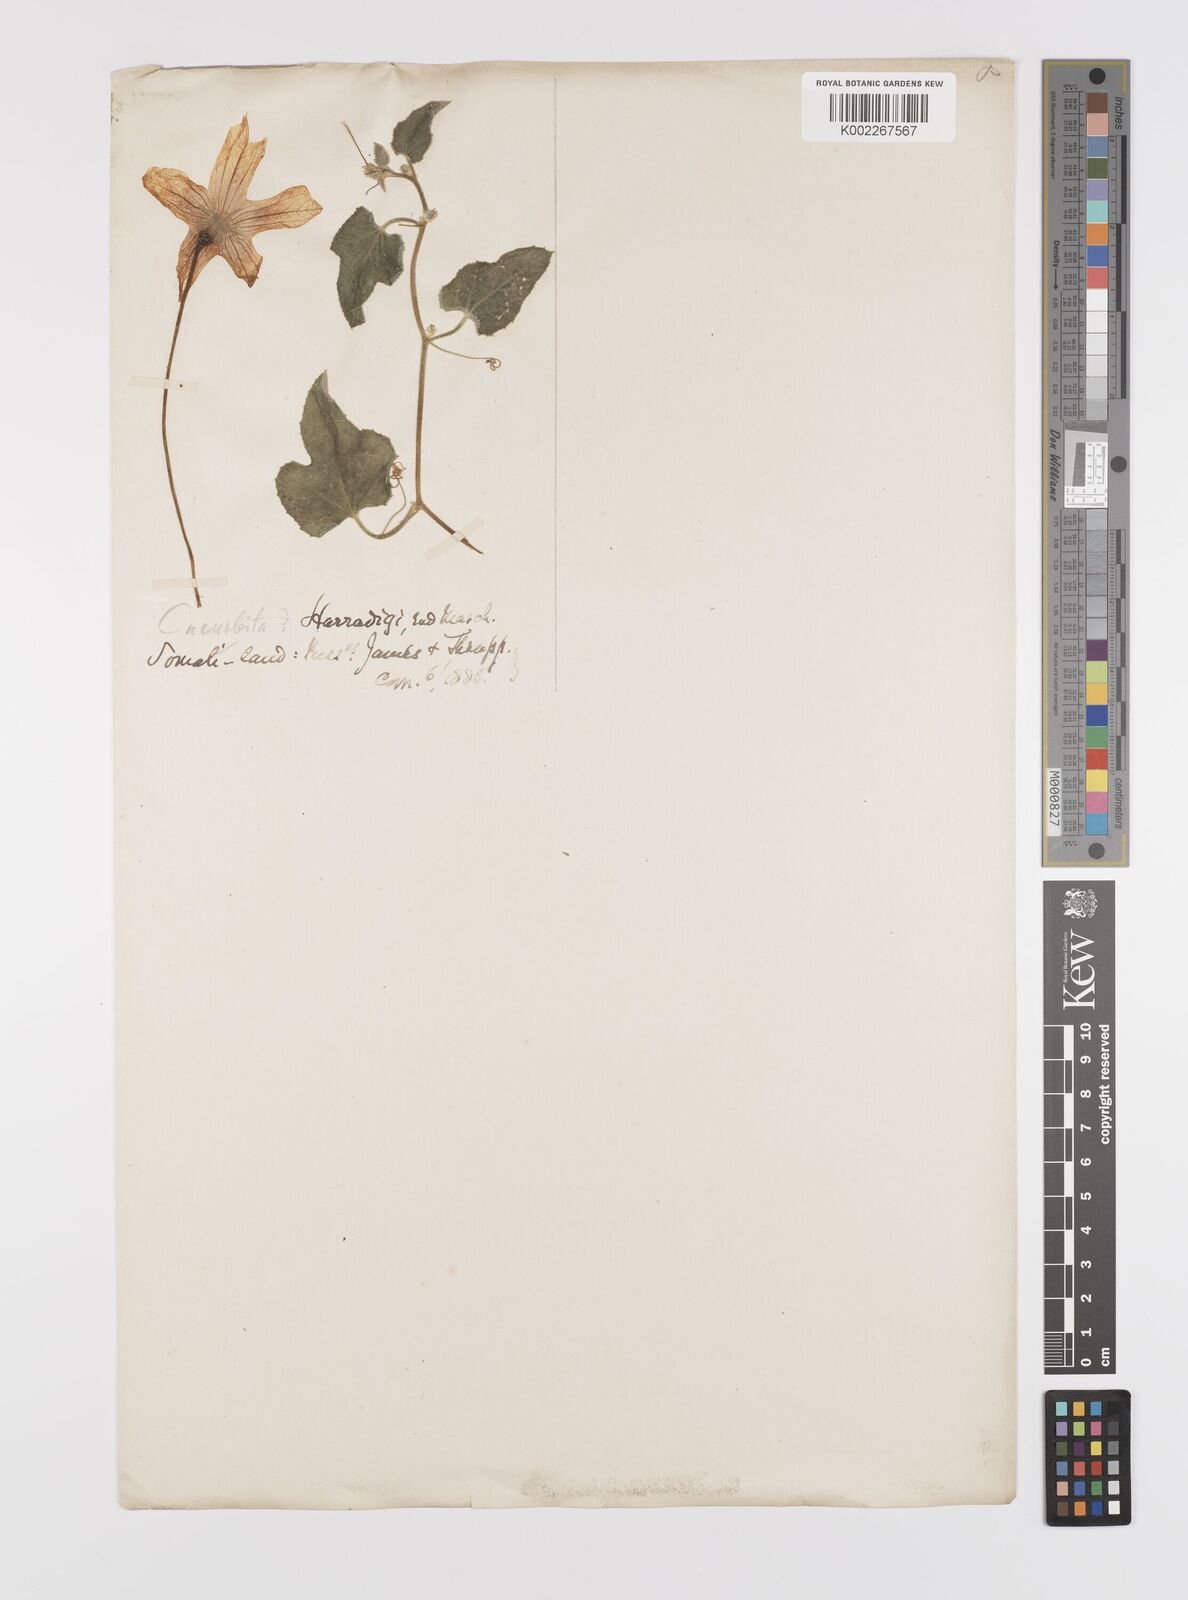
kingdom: Plantae
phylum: Tracheophyta
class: Magnoliopsida
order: Cucurbitales
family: Cucurbitaceae
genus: Cucumis
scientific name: Cucumis carolinus
